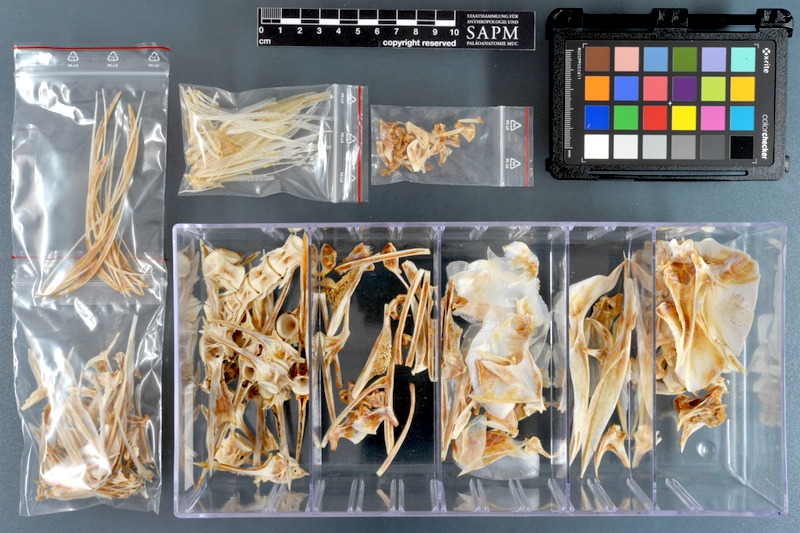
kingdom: Animalia
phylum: Chordata
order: Perciformes
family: Carangidae
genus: Alectis
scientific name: Alectis indica
